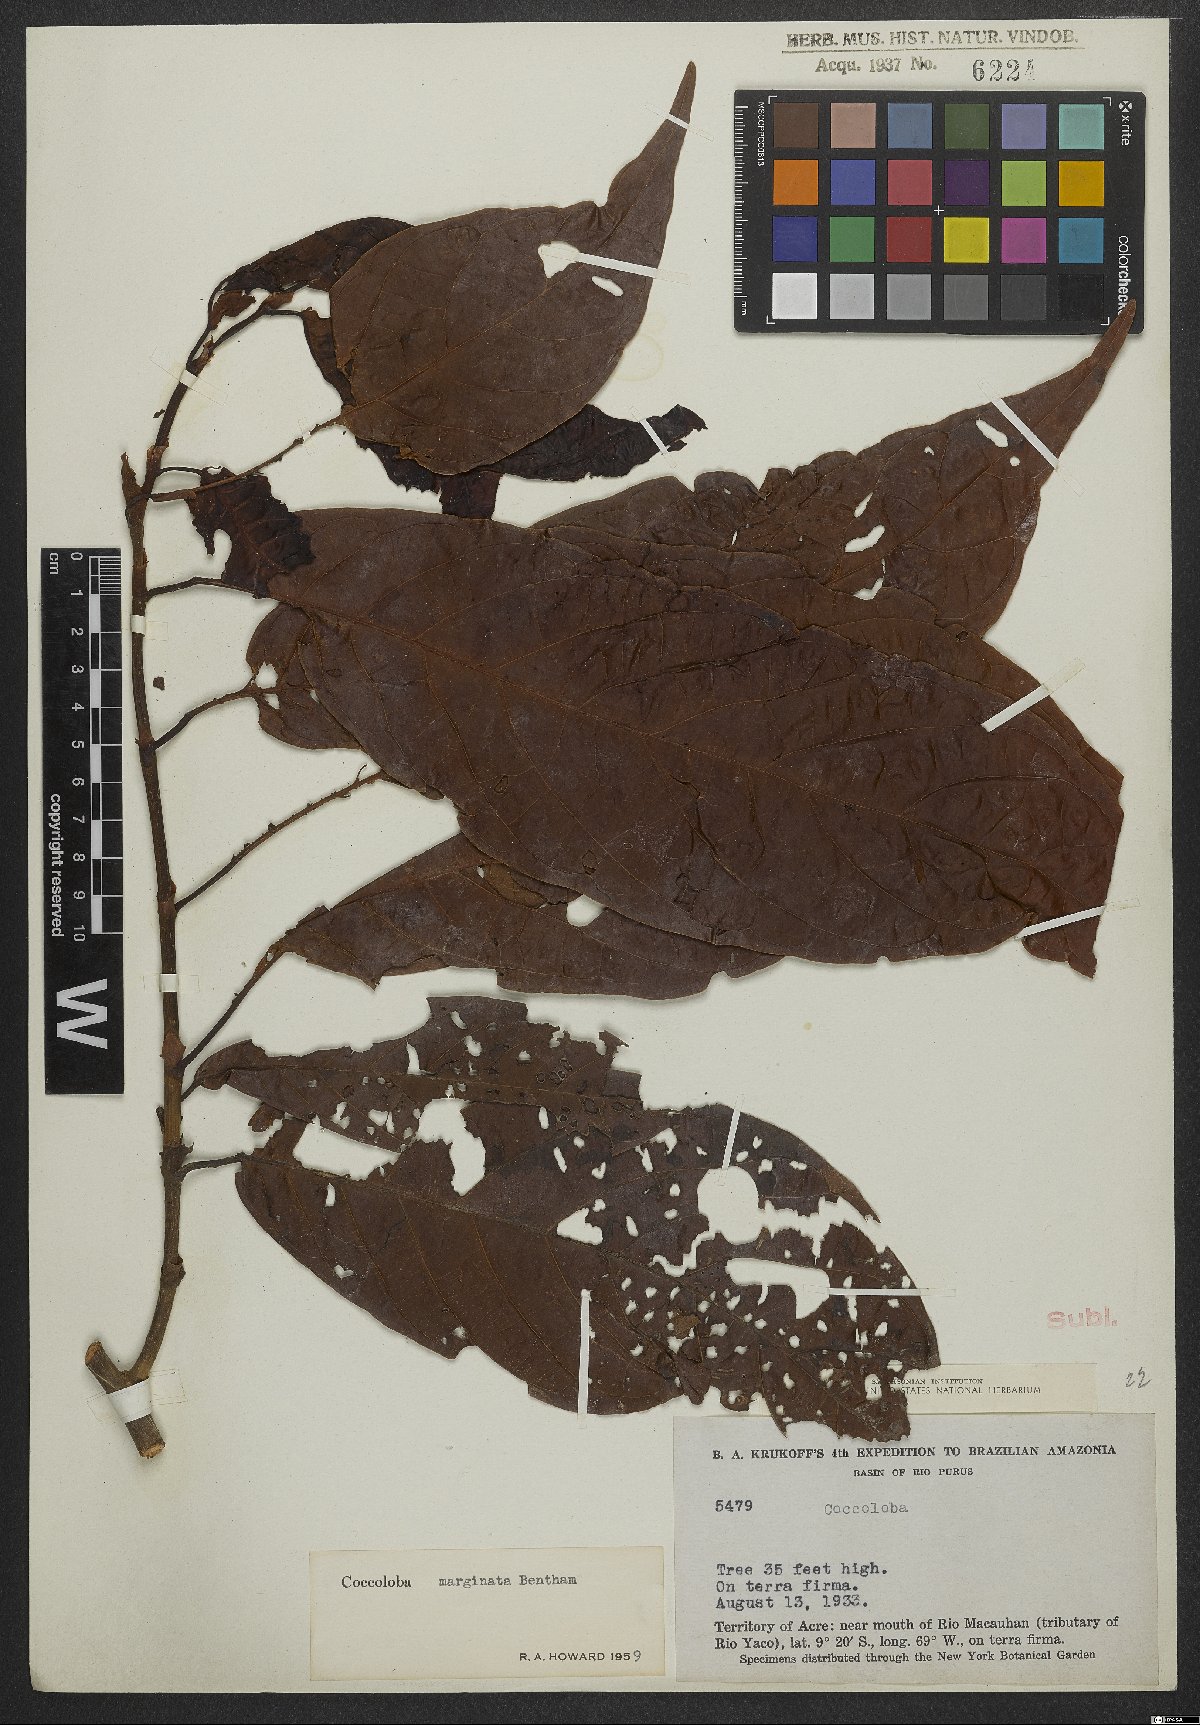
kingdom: Plantae
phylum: Tracheophyta
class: Magnoliopsida
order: Caryophyllales
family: Polygonaceae
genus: Coccoloba
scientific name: Coccoloba nitida
